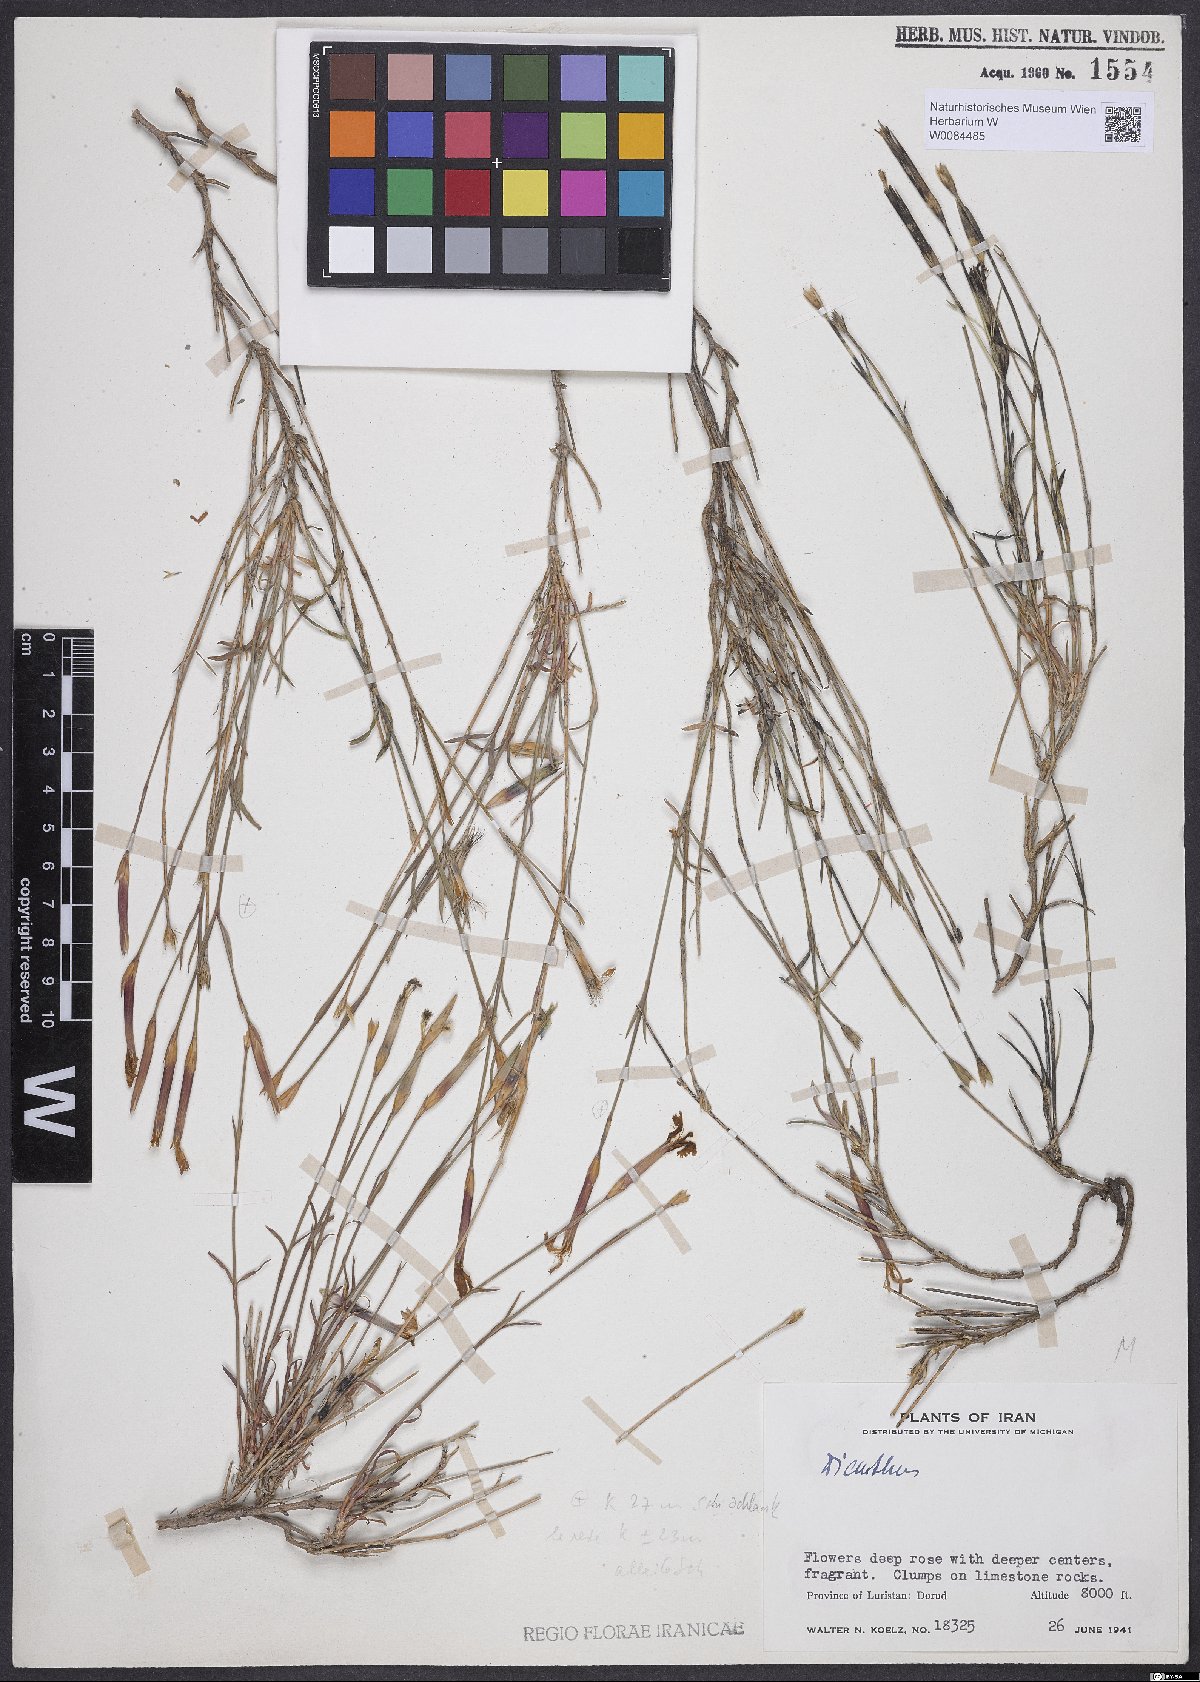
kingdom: Plantae
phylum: Tracheophyta
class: Magnoliopsida
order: Caryophyllales
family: Caryophyllaceae
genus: Dianthus
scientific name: Dianthus orientalis
